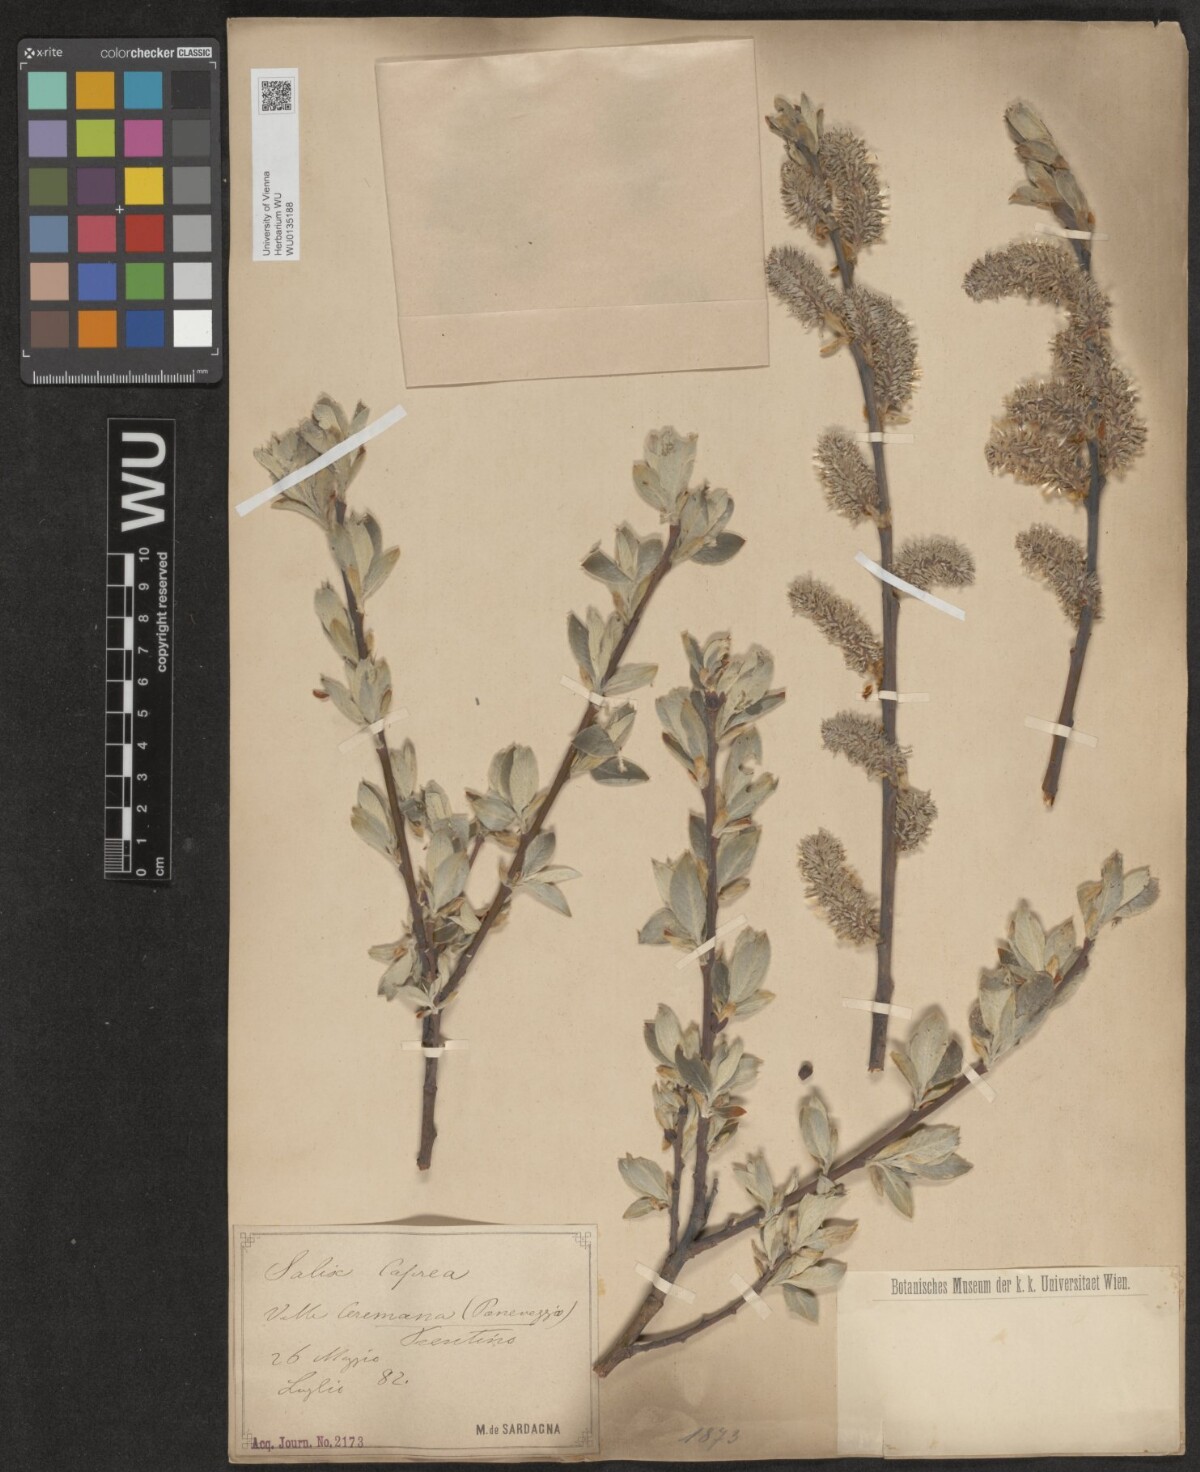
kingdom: Plantae
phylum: Tracheophyta
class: Magnoliopsida
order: Malpighiales
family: Salicaceae
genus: Salix
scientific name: Salix caprea
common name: Goat willow
